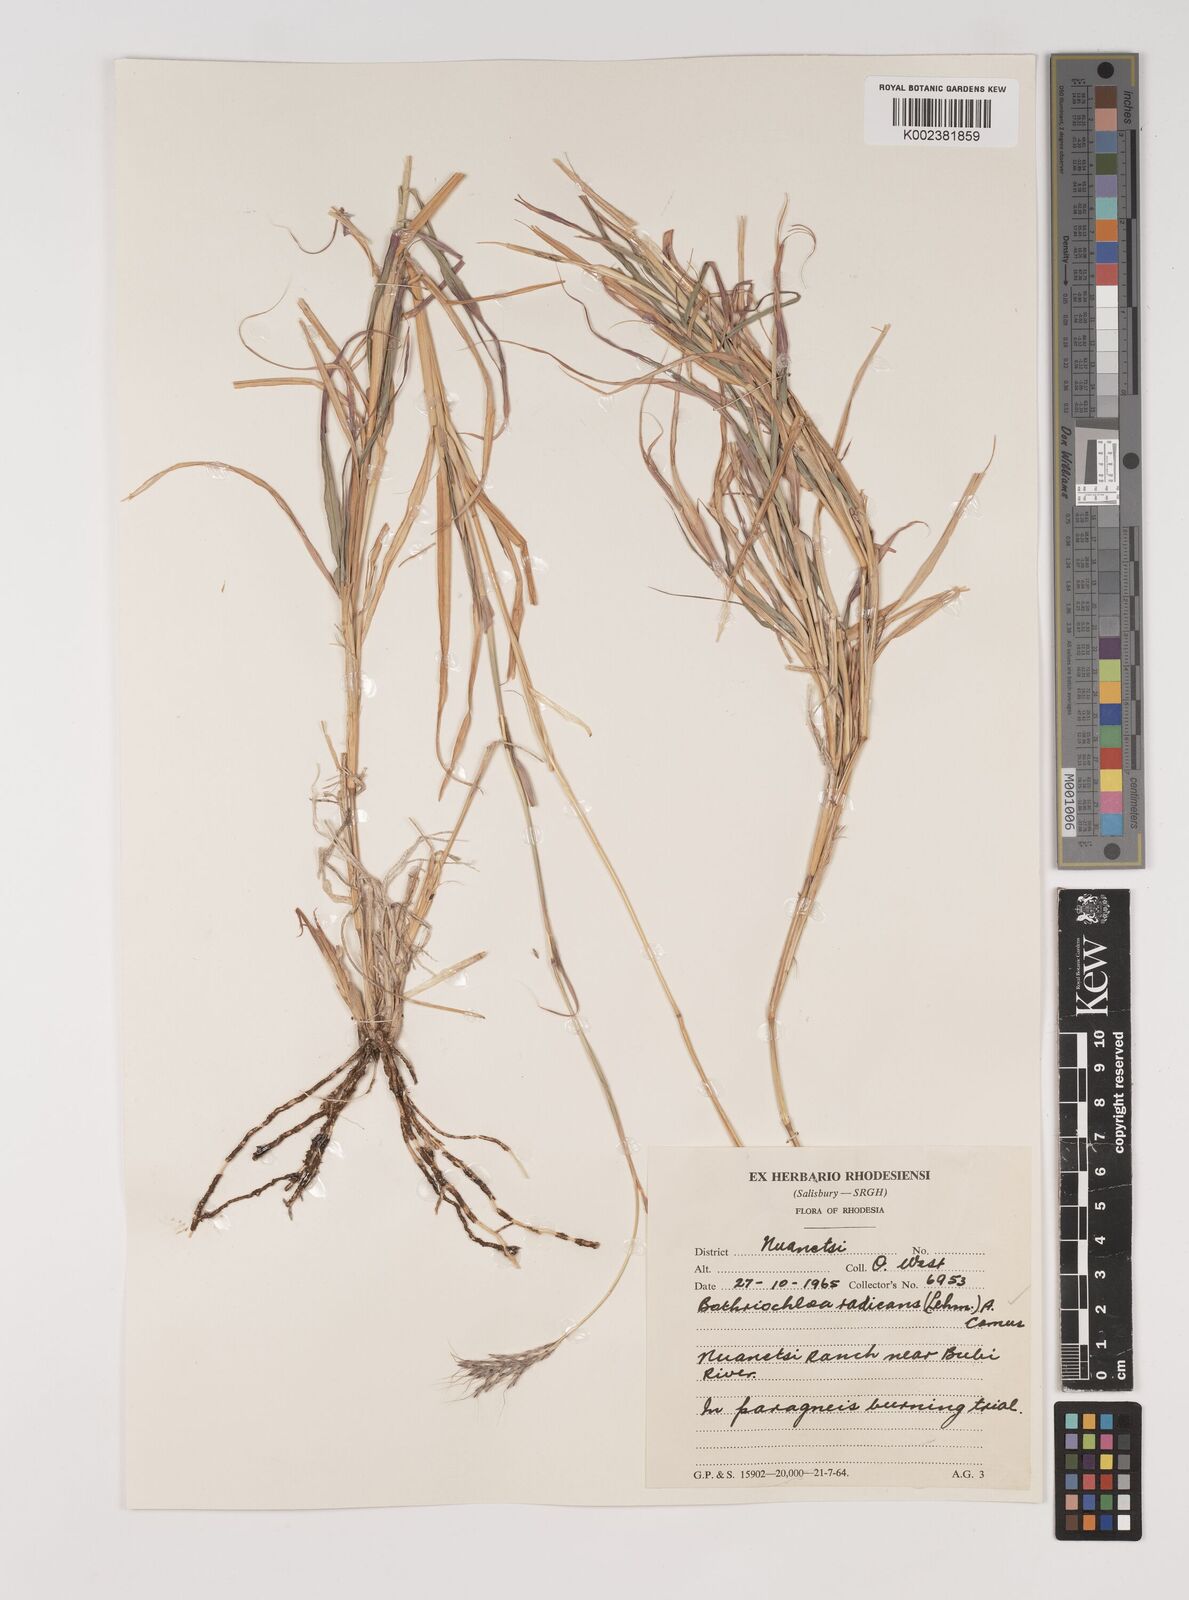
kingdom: Plantae
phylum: Tracheophyta
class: Liliopsida
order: Poales
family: Poaceae
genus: Bothriochloa
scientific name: Bothriochloa radicans
